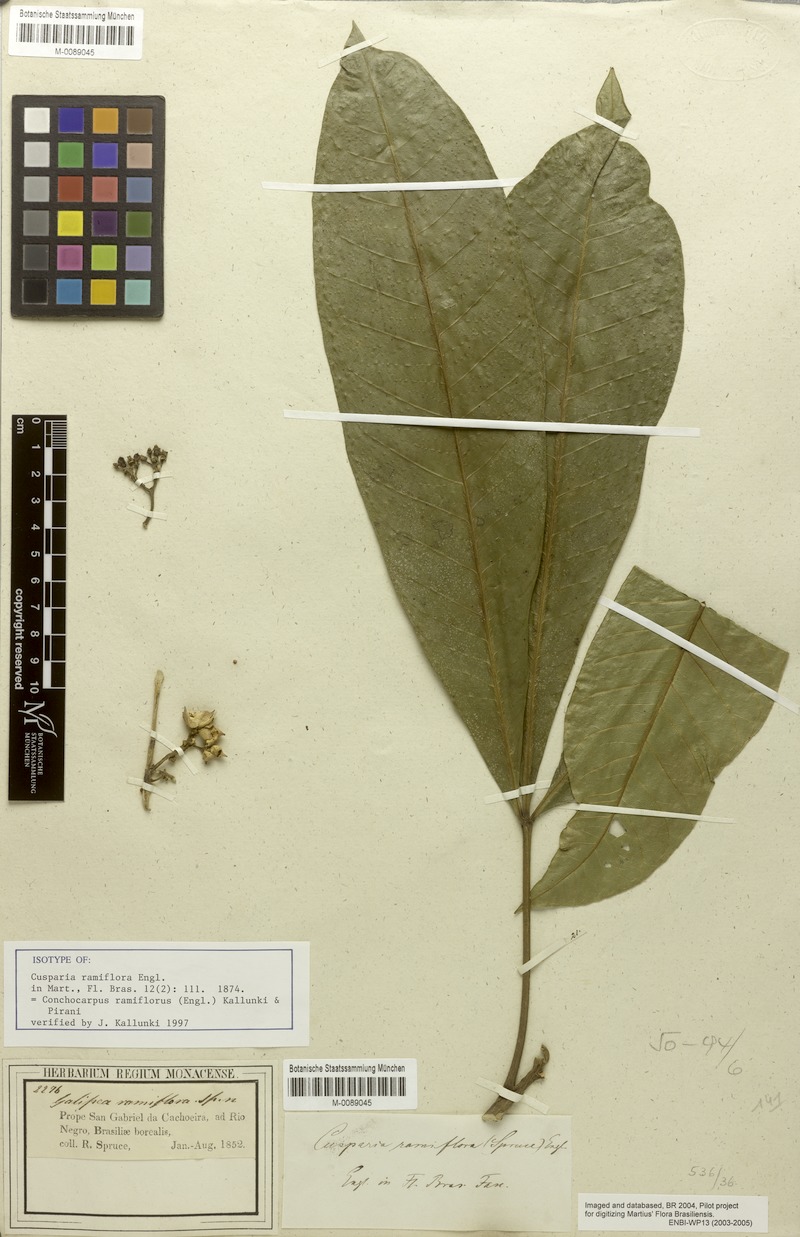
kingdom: Plantae
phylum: Tracheophyta
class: Magnoliopsida
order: Sapindales
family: Rutaceae
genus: Conchocarpus
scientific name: Conchocarpus ramiflorus
